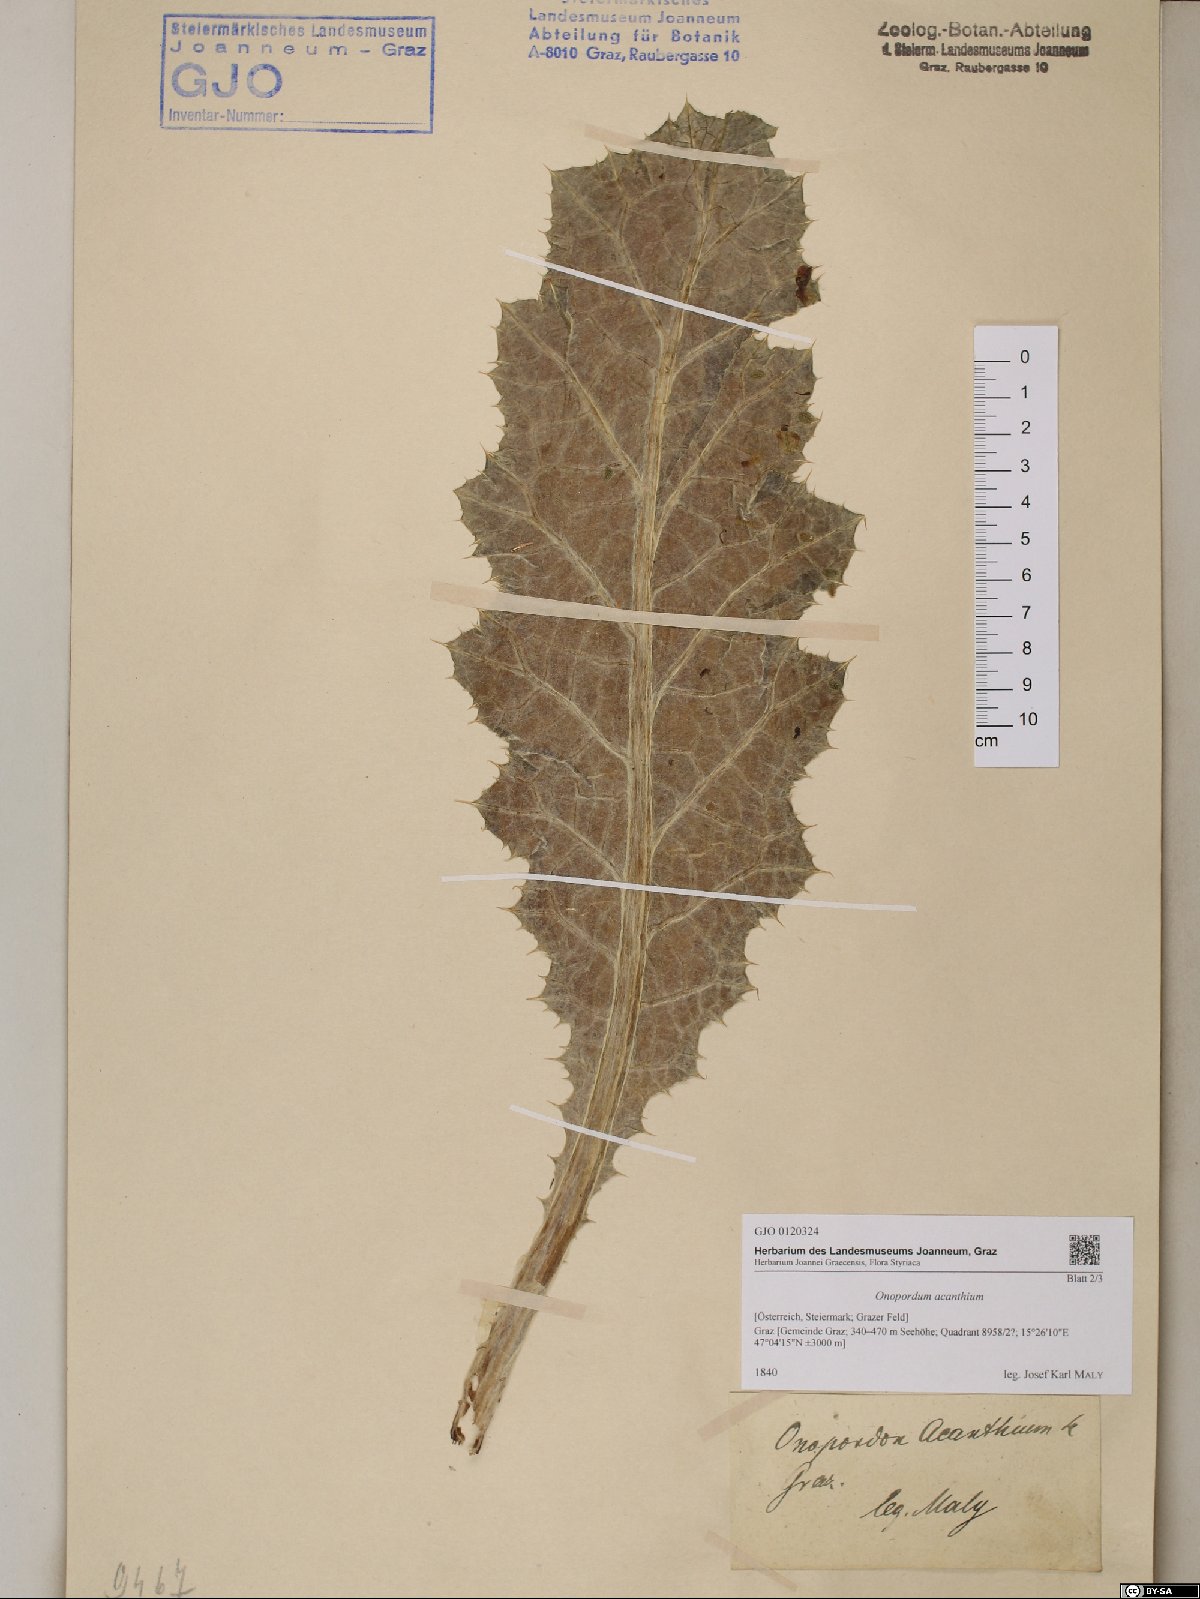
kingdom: Plantae
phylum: Tracheophyta
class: Magnoliopsida
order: Asterales
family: Asteraceae
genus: Onopordum
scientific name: Onopordum acanthium
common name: Scotch thistle
